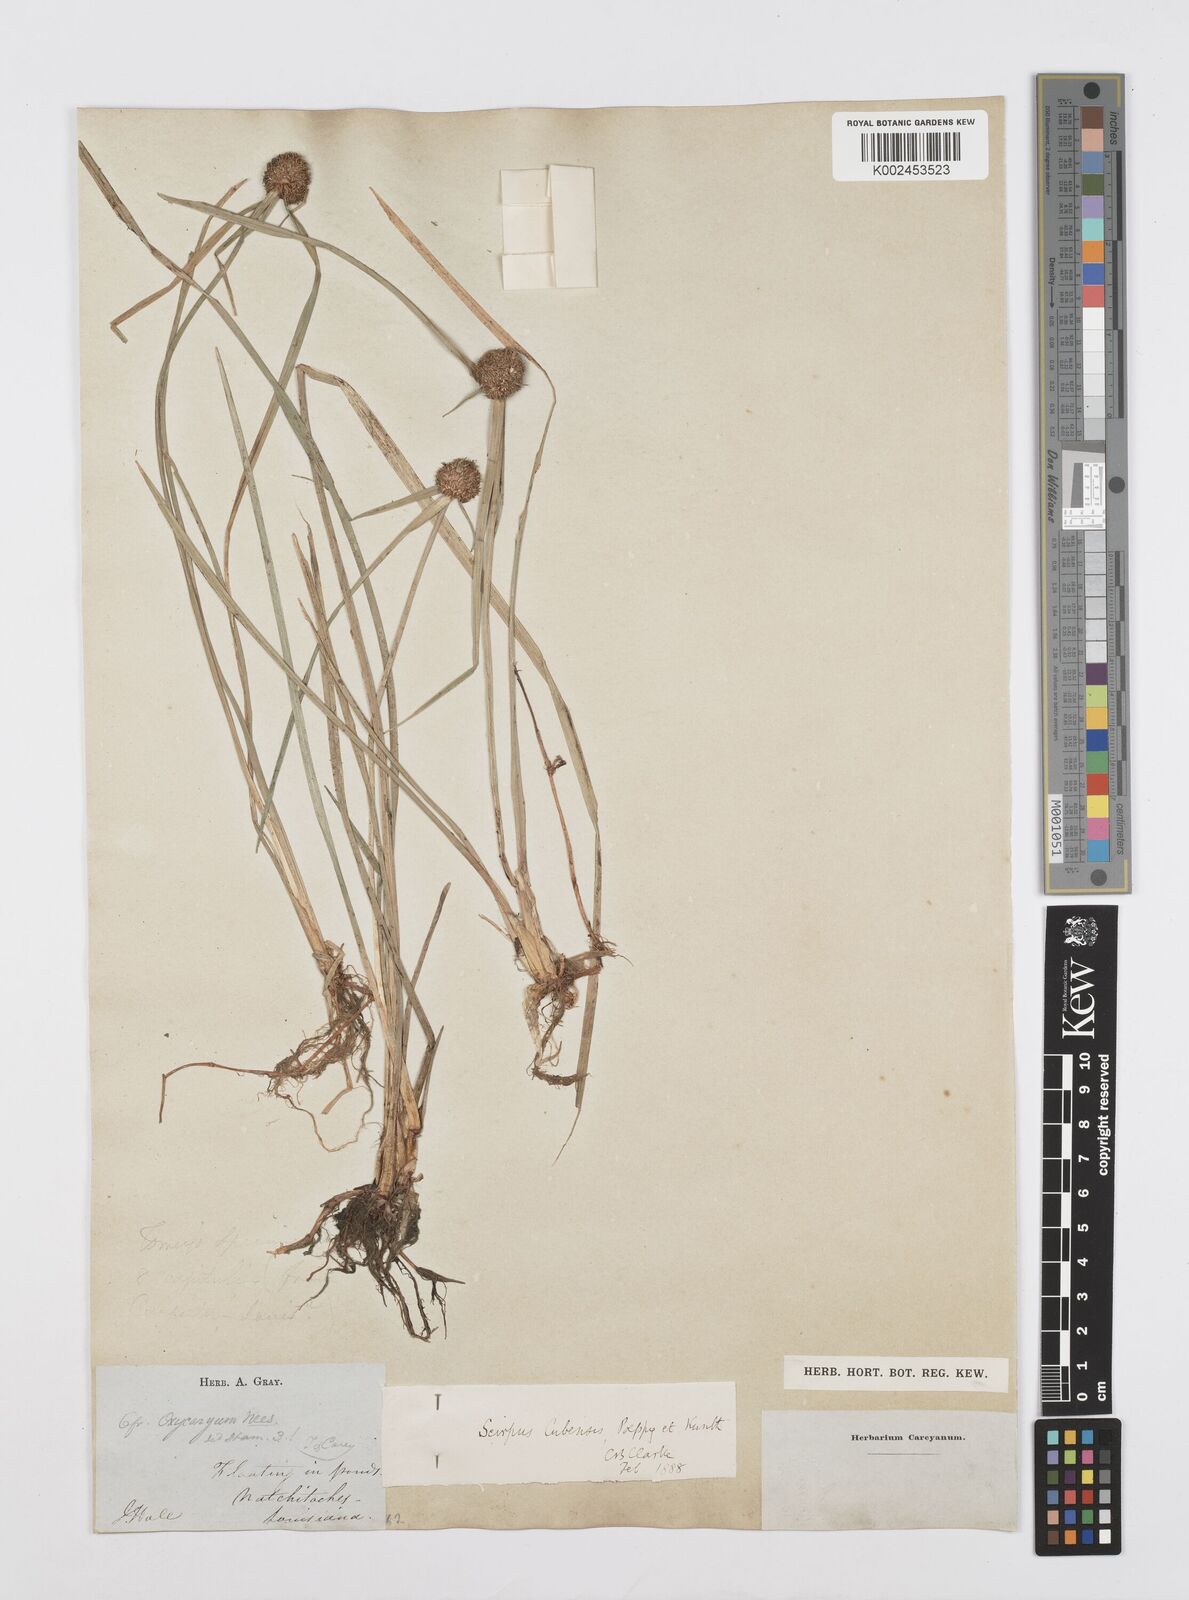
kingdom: Plantae
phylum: Tracheophyta
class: Liliopsida
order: Poales
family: Cyperaceae
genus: Cyperus
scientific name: Cyperus elegans
